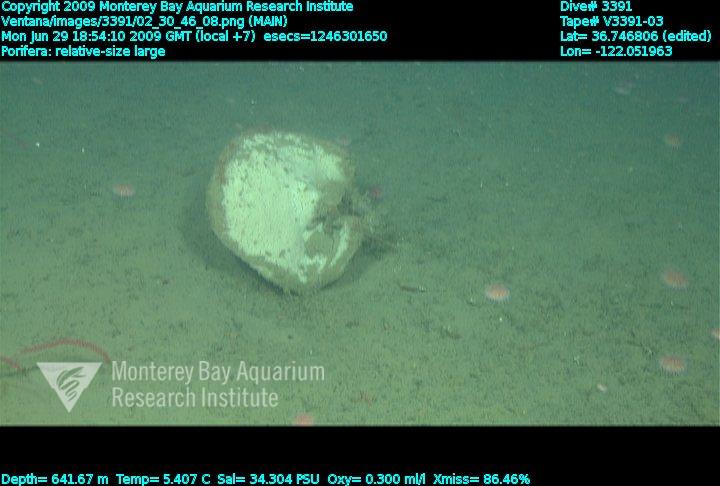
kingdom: Animalia
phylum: Porifera
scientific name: Porifera
